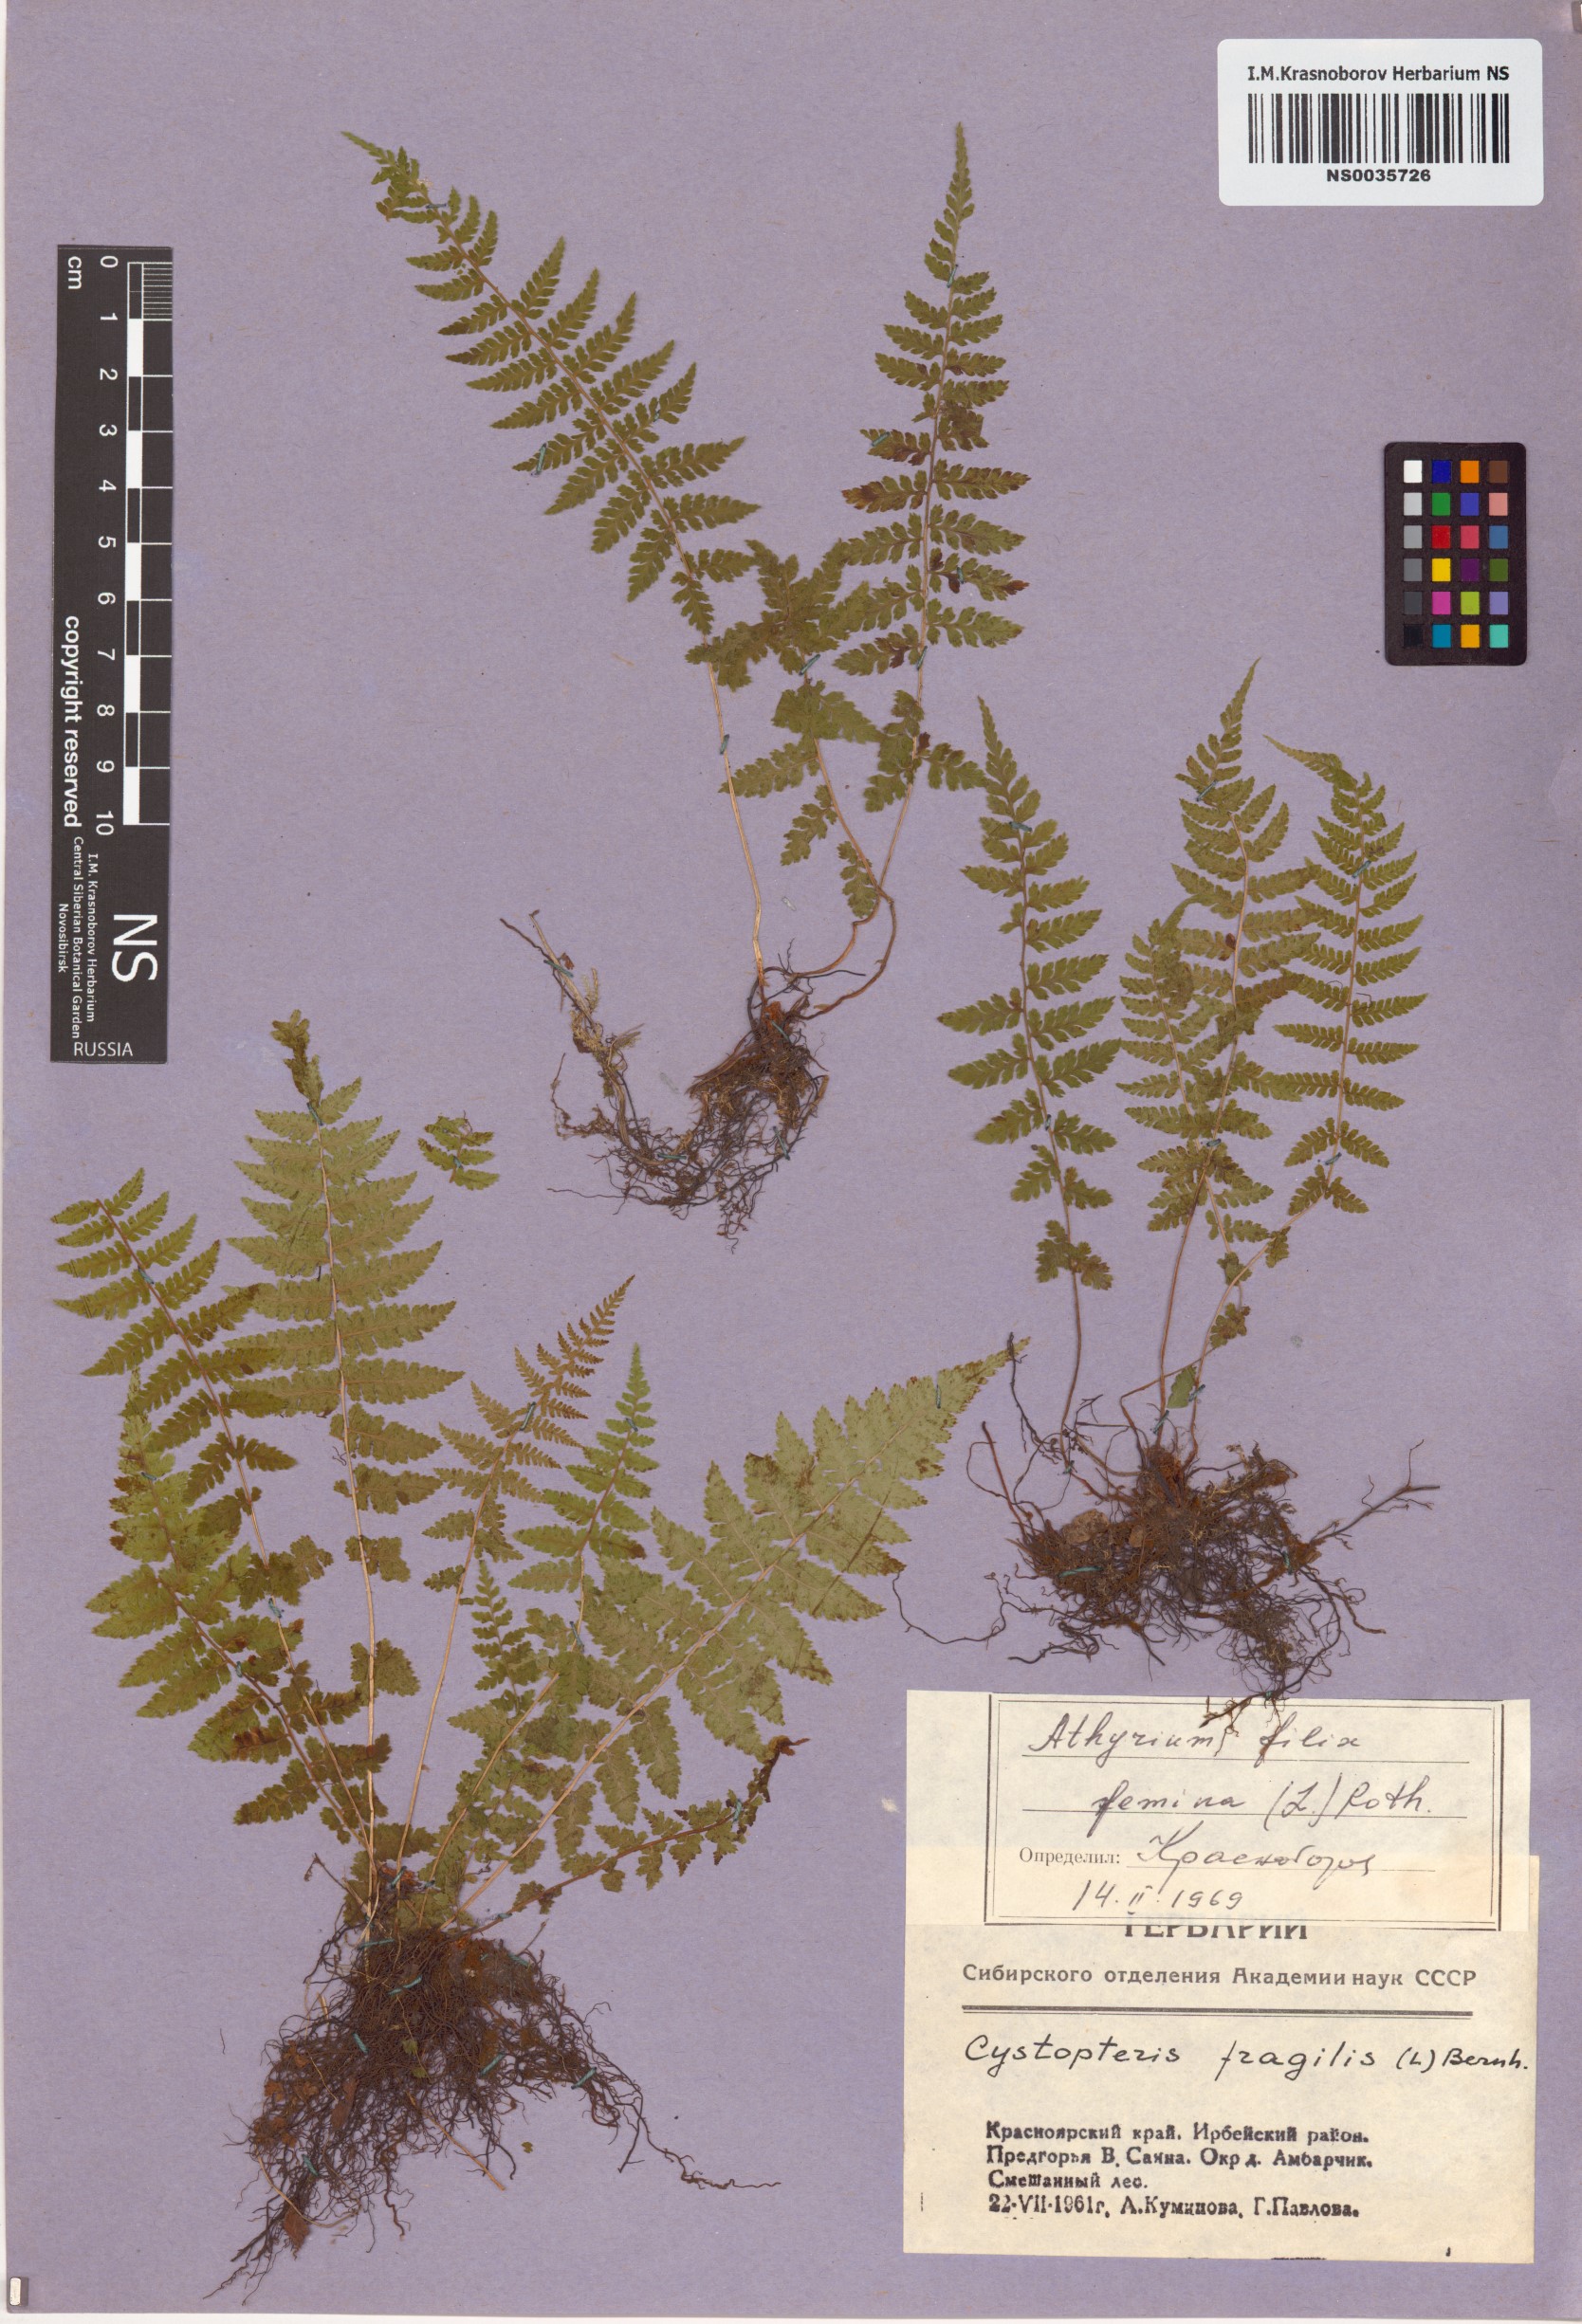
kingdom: Plantae
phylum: Tracheophyta
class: Polypodiopsida
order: Polypodiales
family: Athyriaceae
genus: Athyrium
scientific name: Athyrium filix-femina
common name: Lady fern
